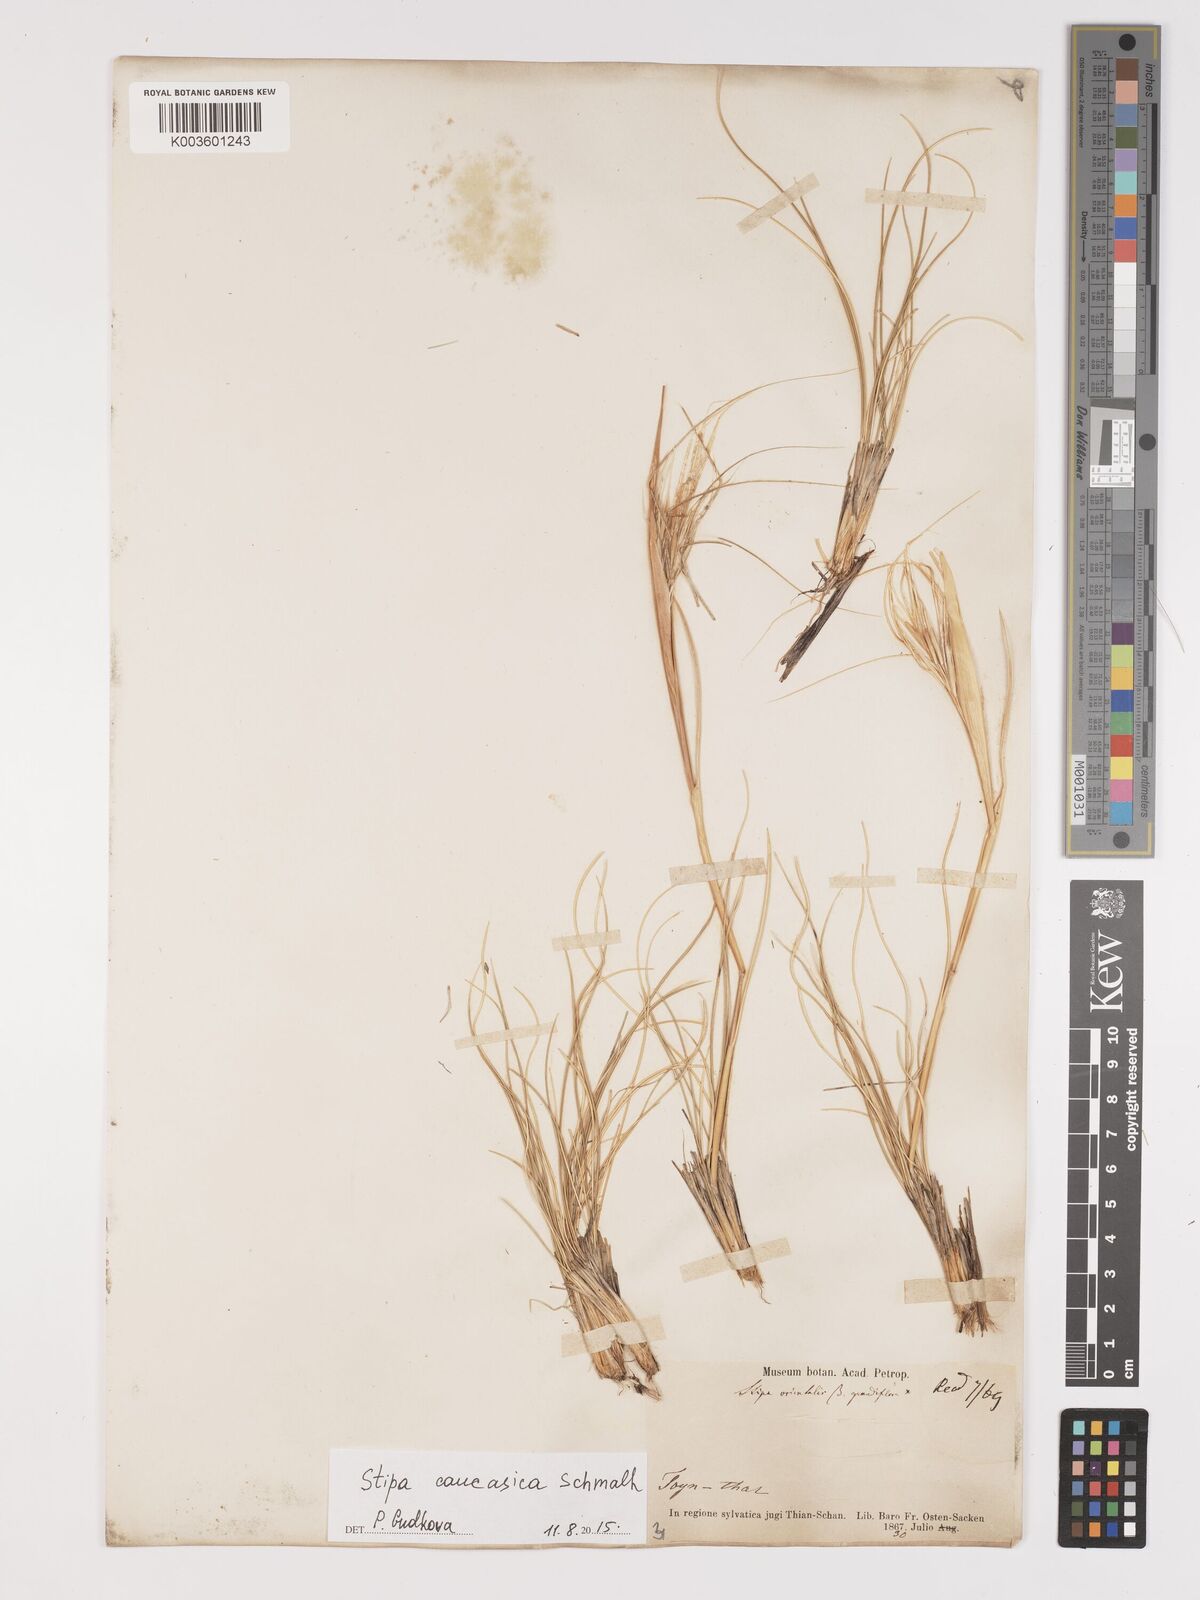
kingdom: Plantae
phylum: Tracheophyta
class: Liliopsida
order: Poales
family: Poaceae
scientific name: Poaceae
